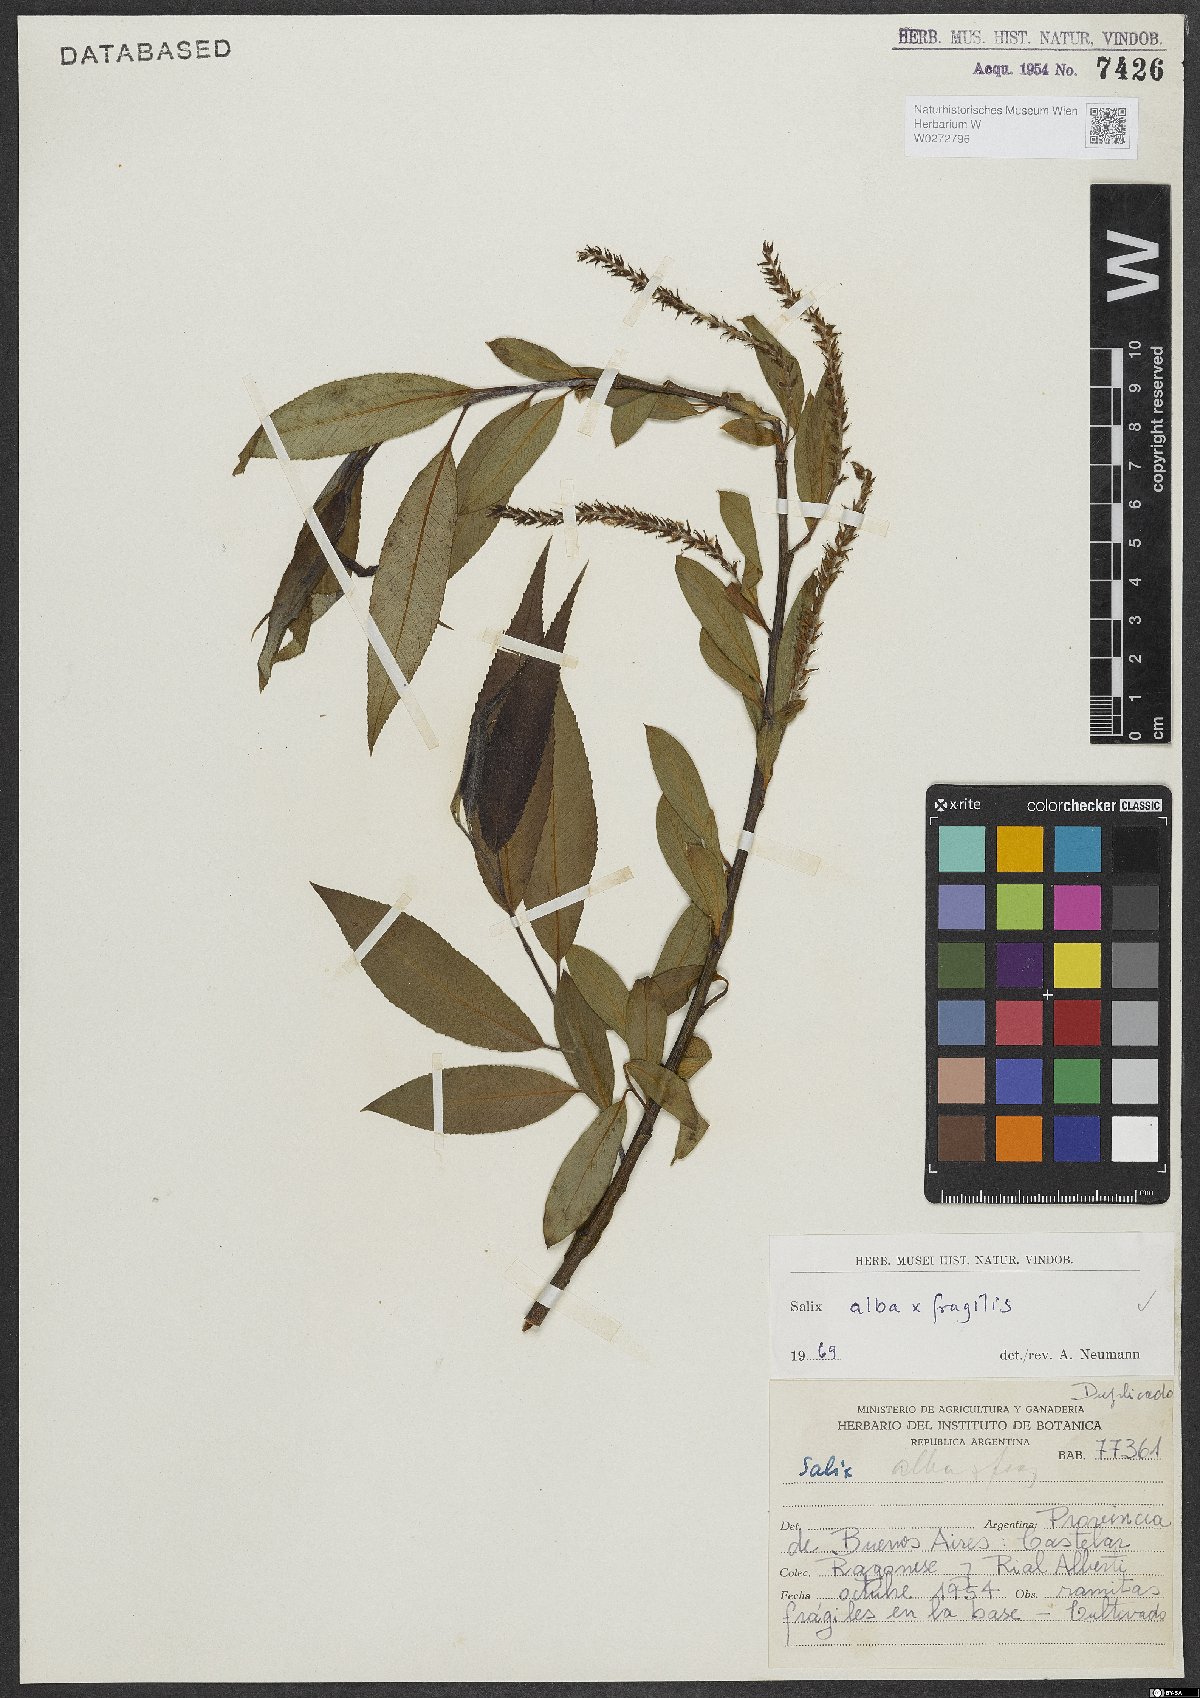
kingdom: Plantae
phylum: Tracheophyta
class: Magnoliopsida
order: Malpighiales
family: Salicaceae
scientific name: Salicaceae
